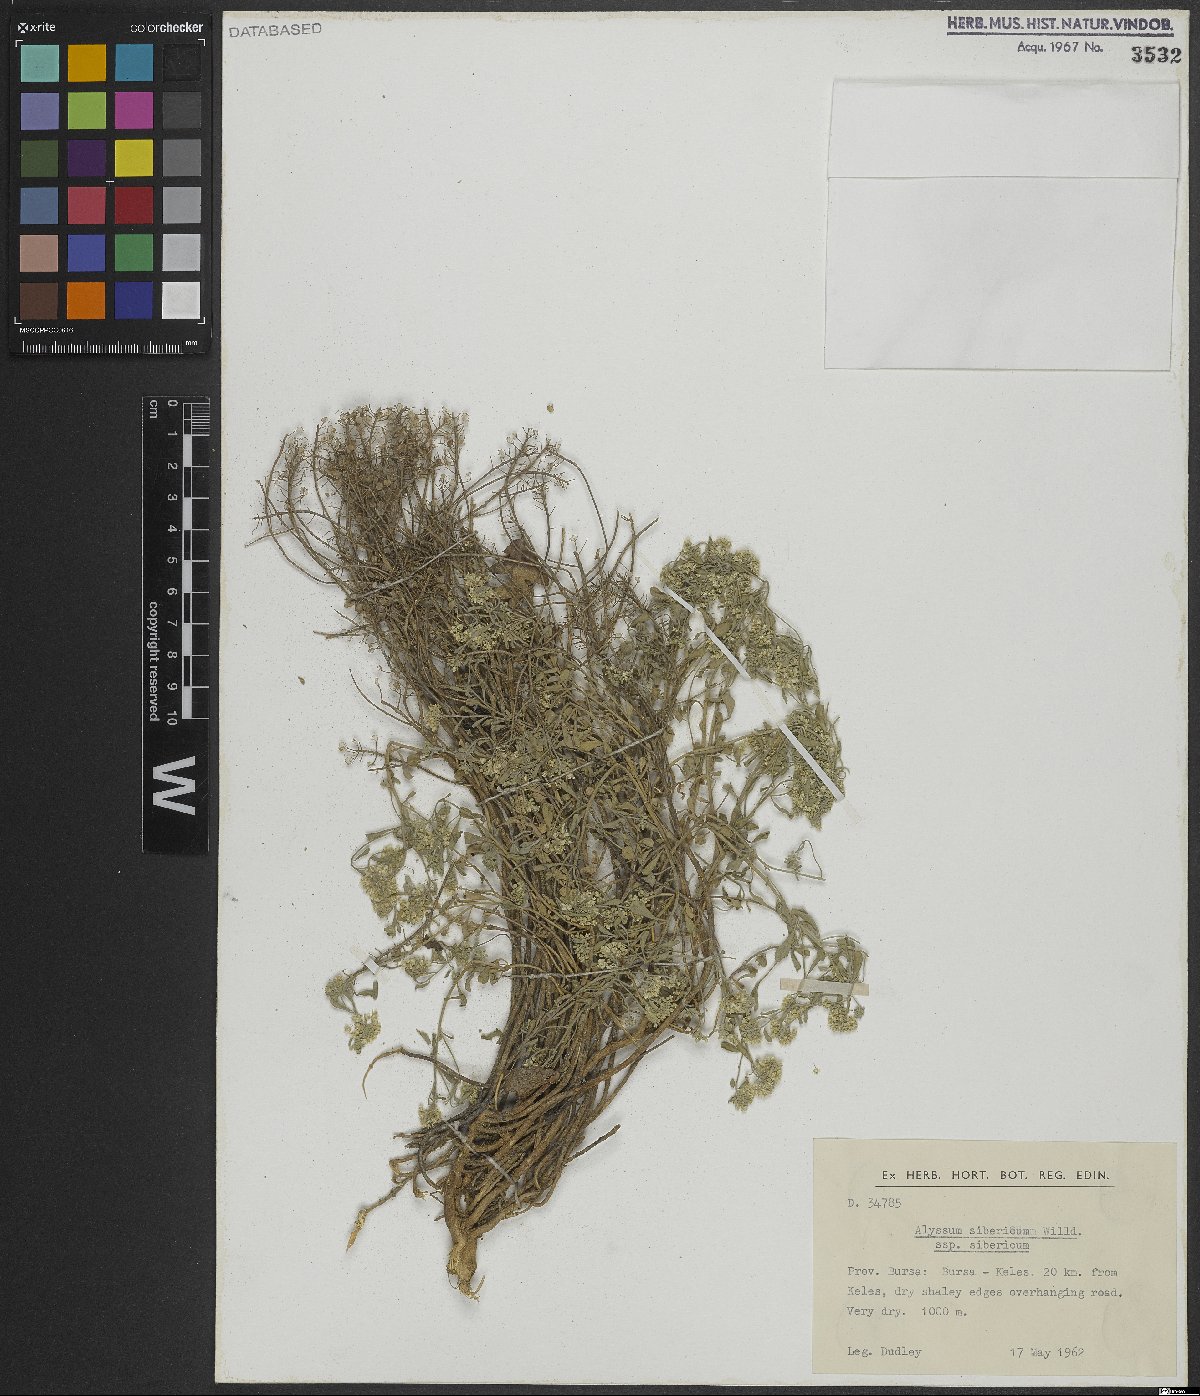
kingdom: Plantae
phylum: Tracheophyta
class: Magnoliopsida
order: Brassicales
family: Brassicaceae
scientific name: Brassicaceae
